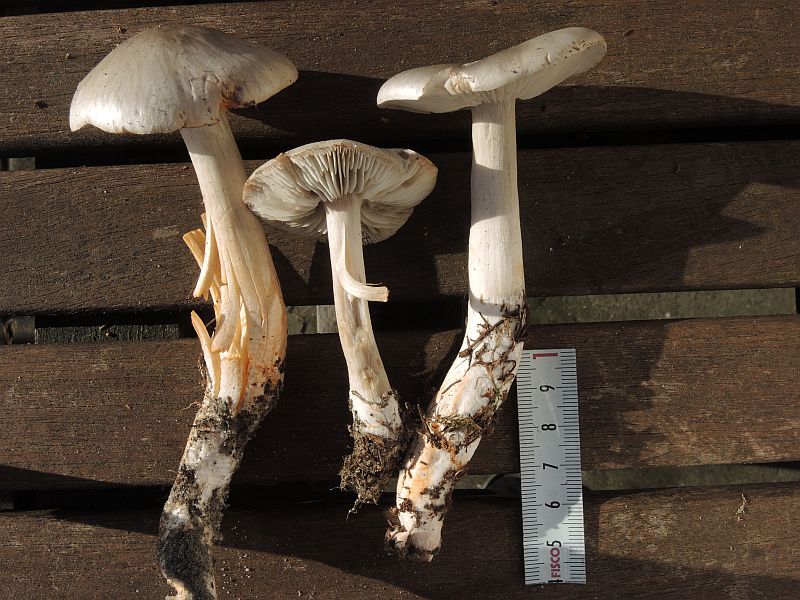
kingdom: Fungi
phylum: Basidiomycota
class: Agaricomycetes
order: Agaricales
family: Tricholomataceae
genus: Tricholoma
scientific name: Tricholoma sudum
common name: tør ridderhat
